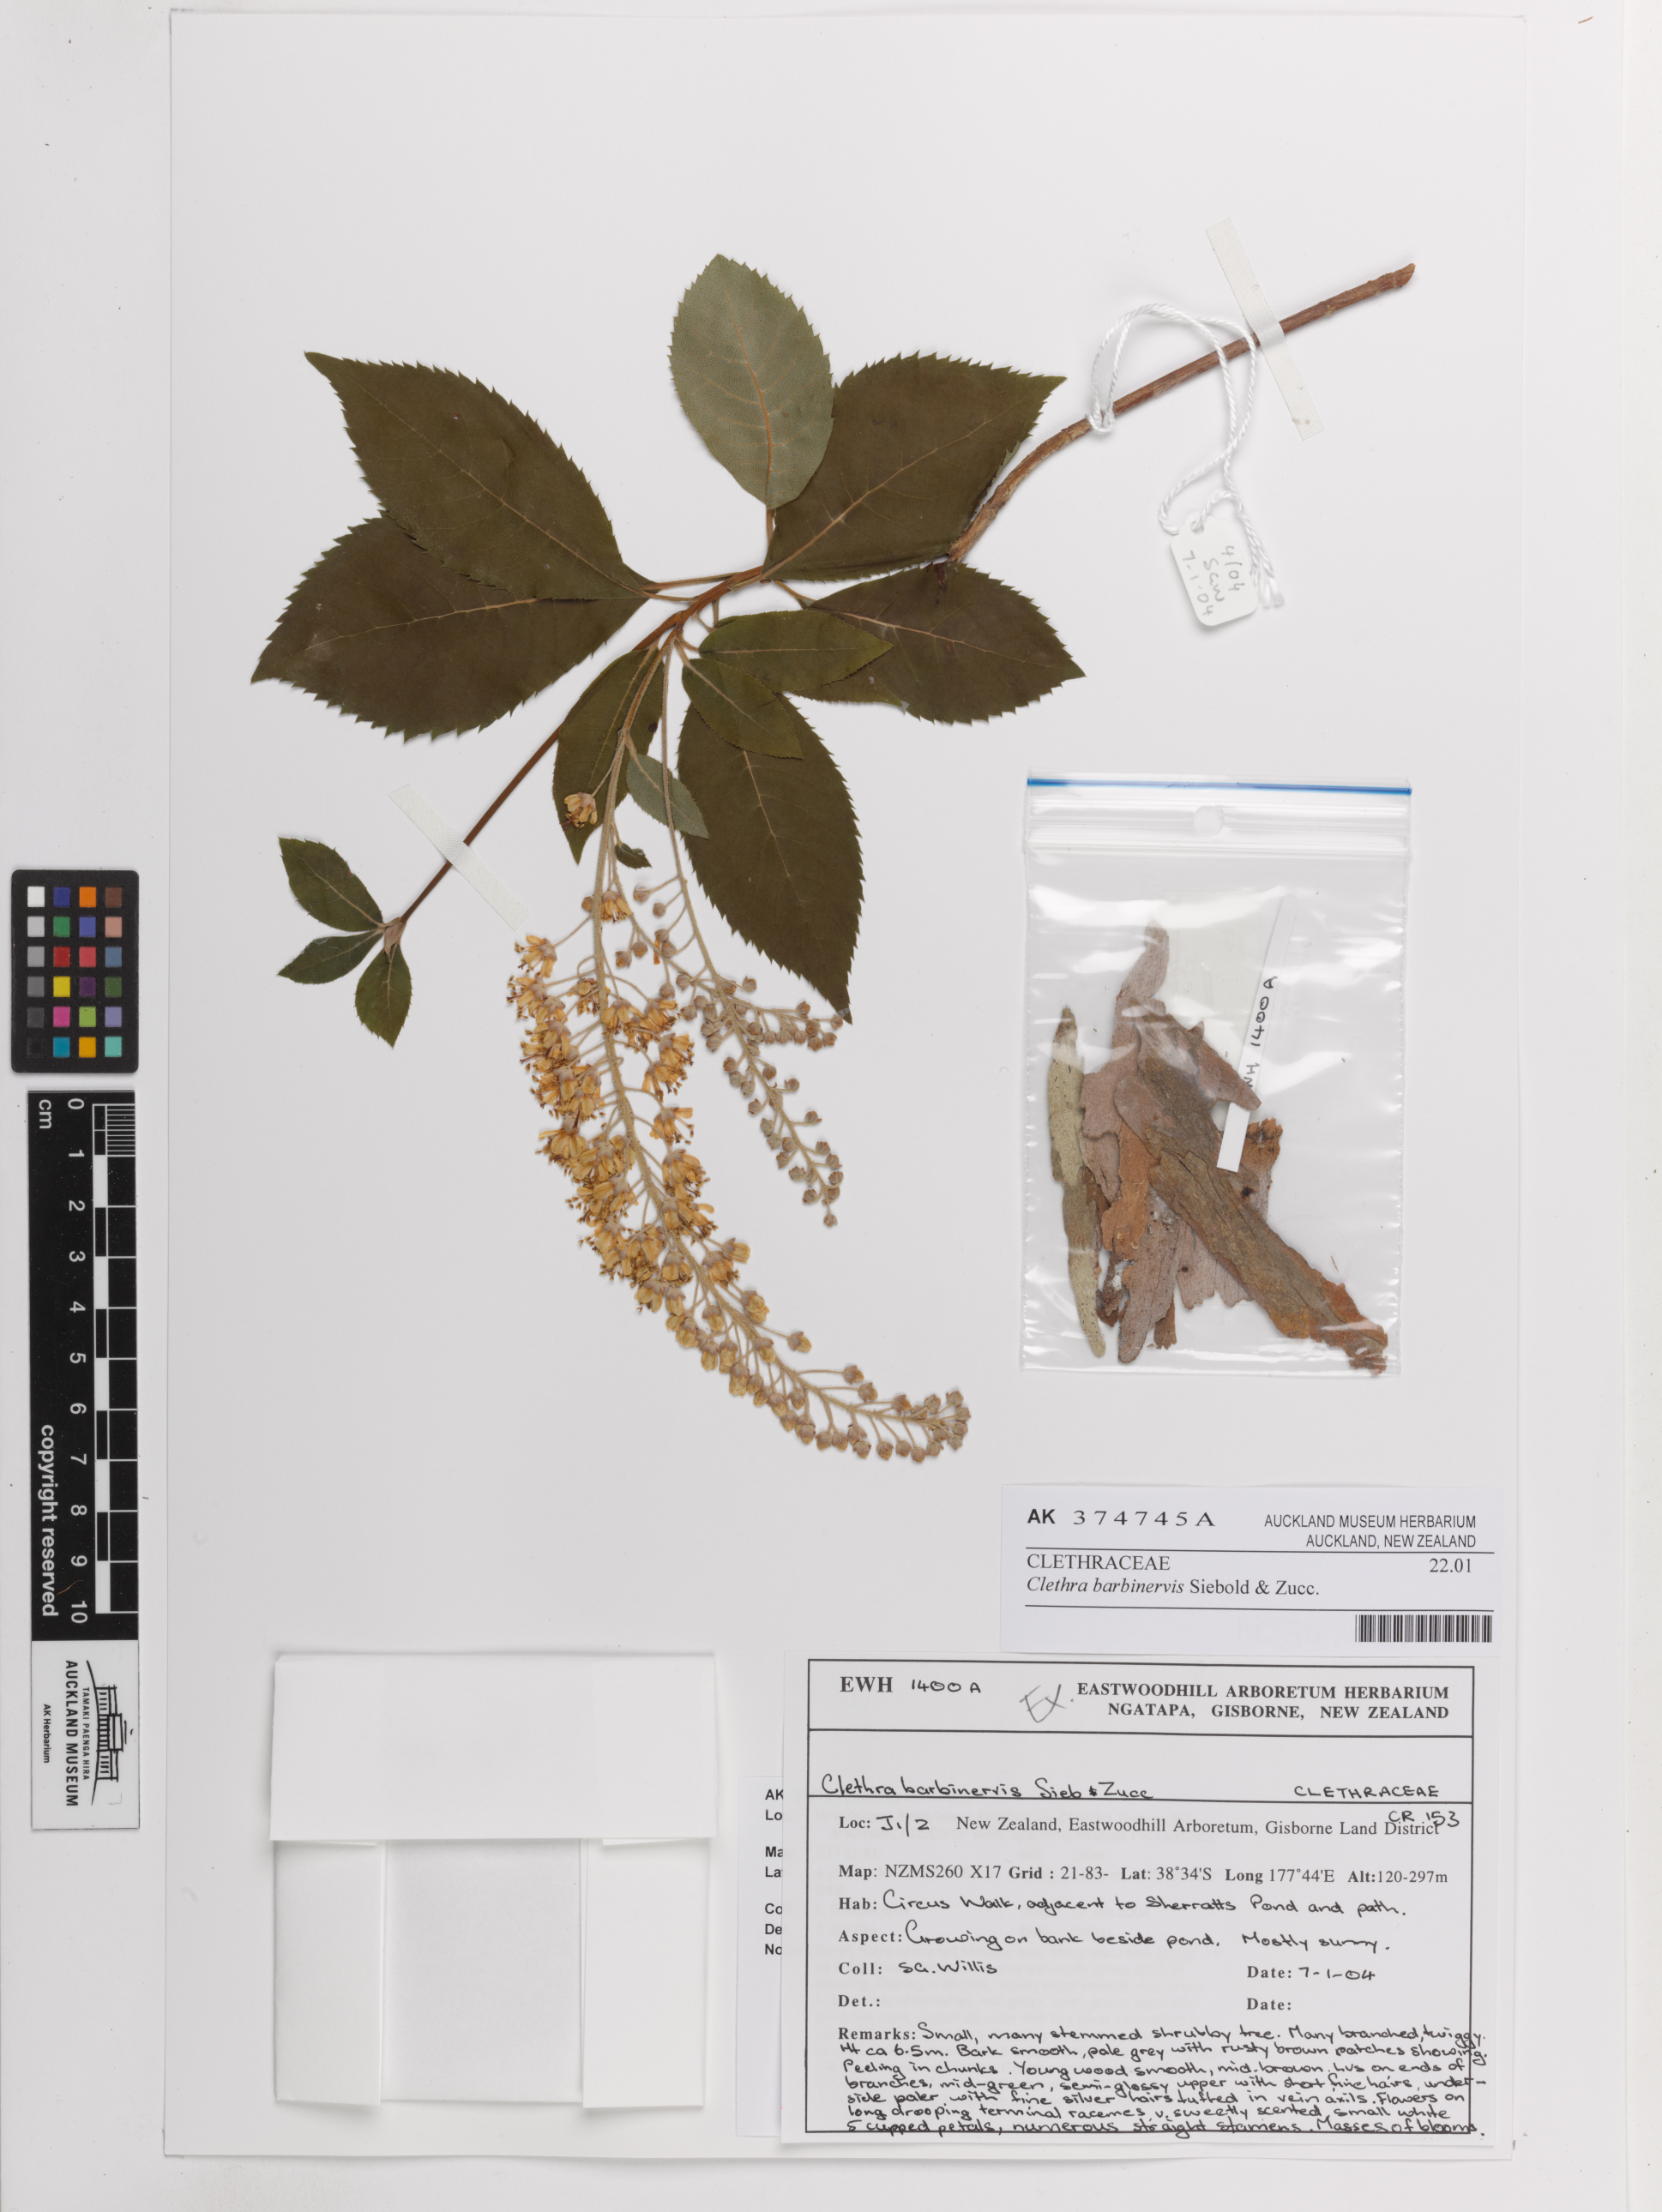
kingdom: Plantae
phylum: Tracheophyta
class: Magnoliopsida
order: Ericales
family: Clethraceae
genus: Clethra
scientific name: Clethra barbinervis
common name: Japanese clethra
